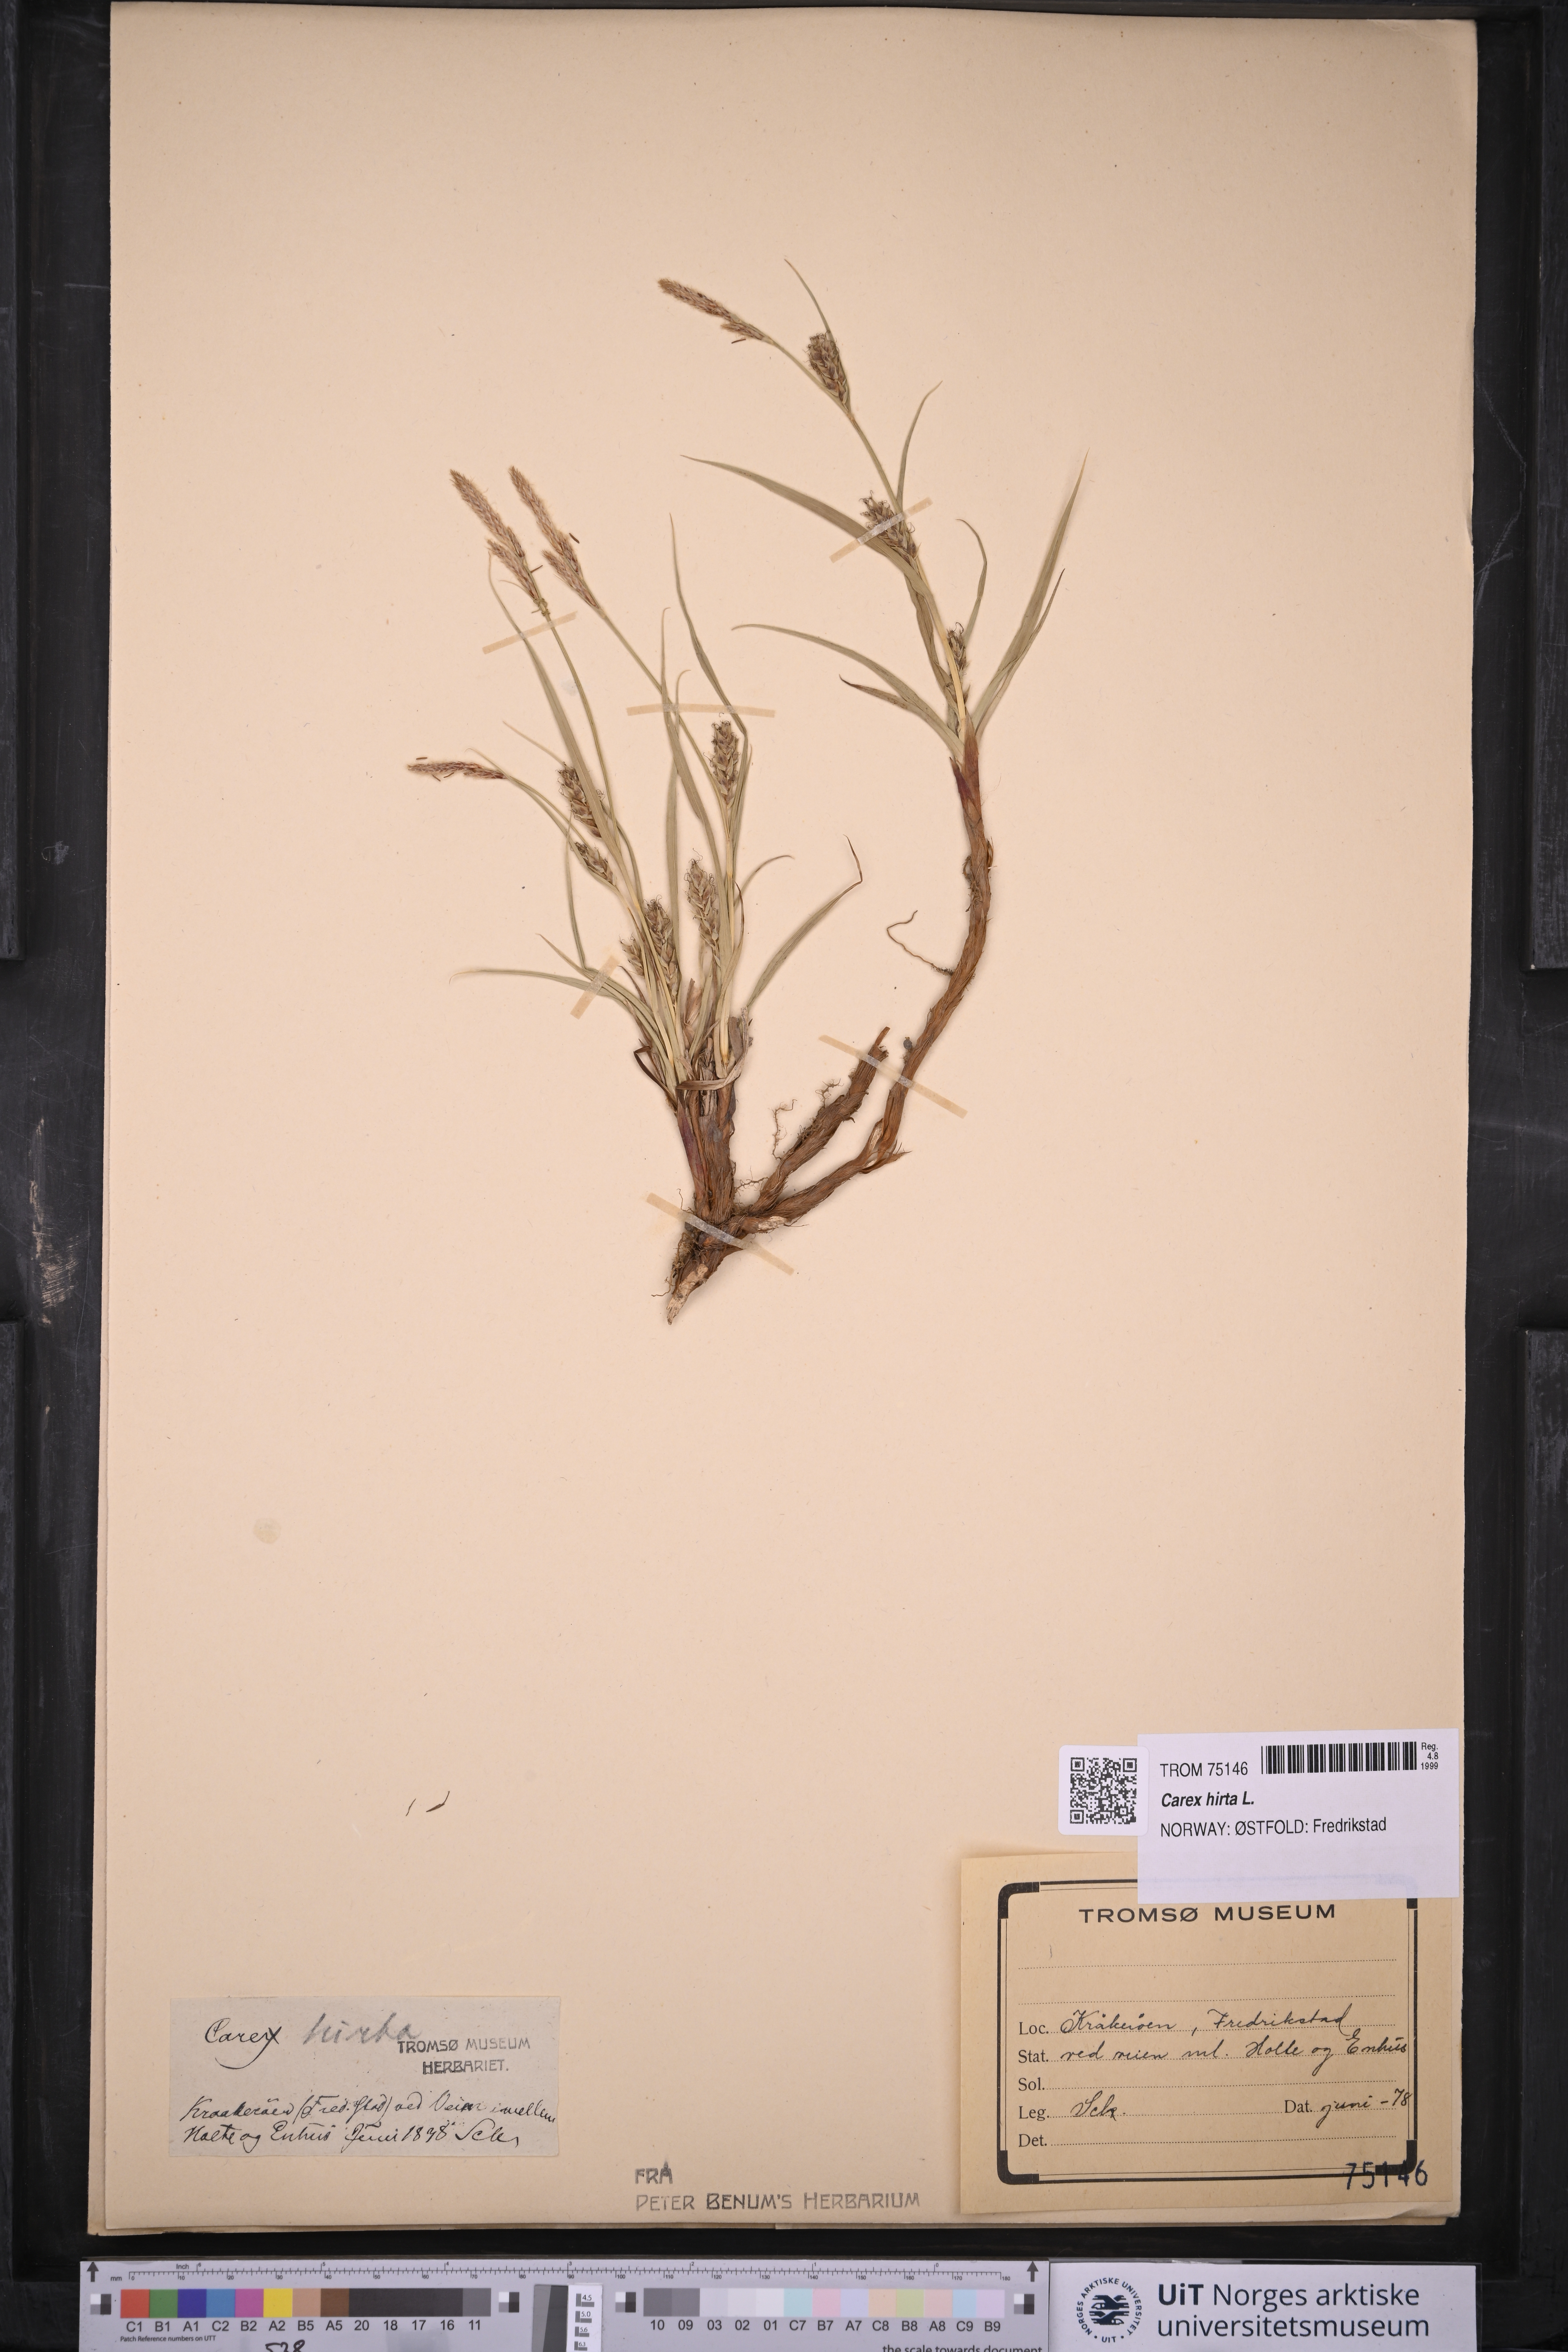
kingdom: Plantae
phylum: Tracheophyta
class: Liliopsida
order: Poales
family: Cyperaceae
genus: Carex
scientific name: Carex hirta
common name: Hairy sedge
